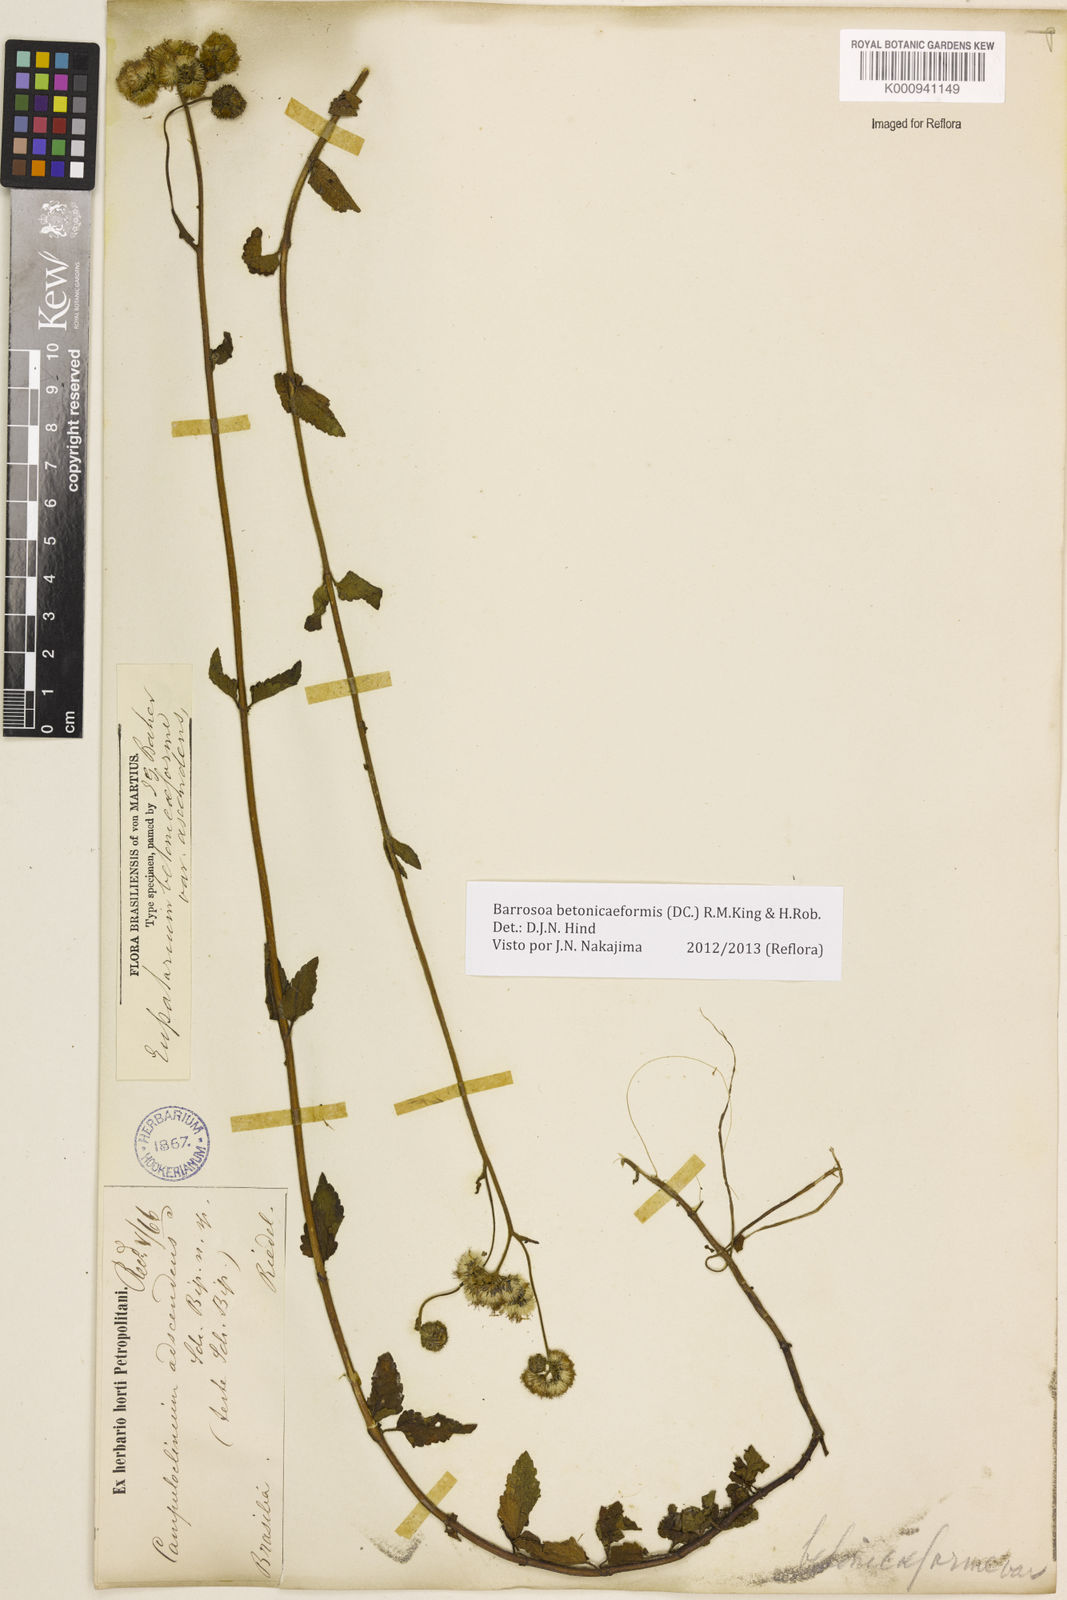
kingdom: Plantae
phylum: Tracheophyta
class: Magnoliopsida
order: Asterales
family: Asteraceae
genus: Barrosoa
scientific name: Barrosoa betoniciformis
